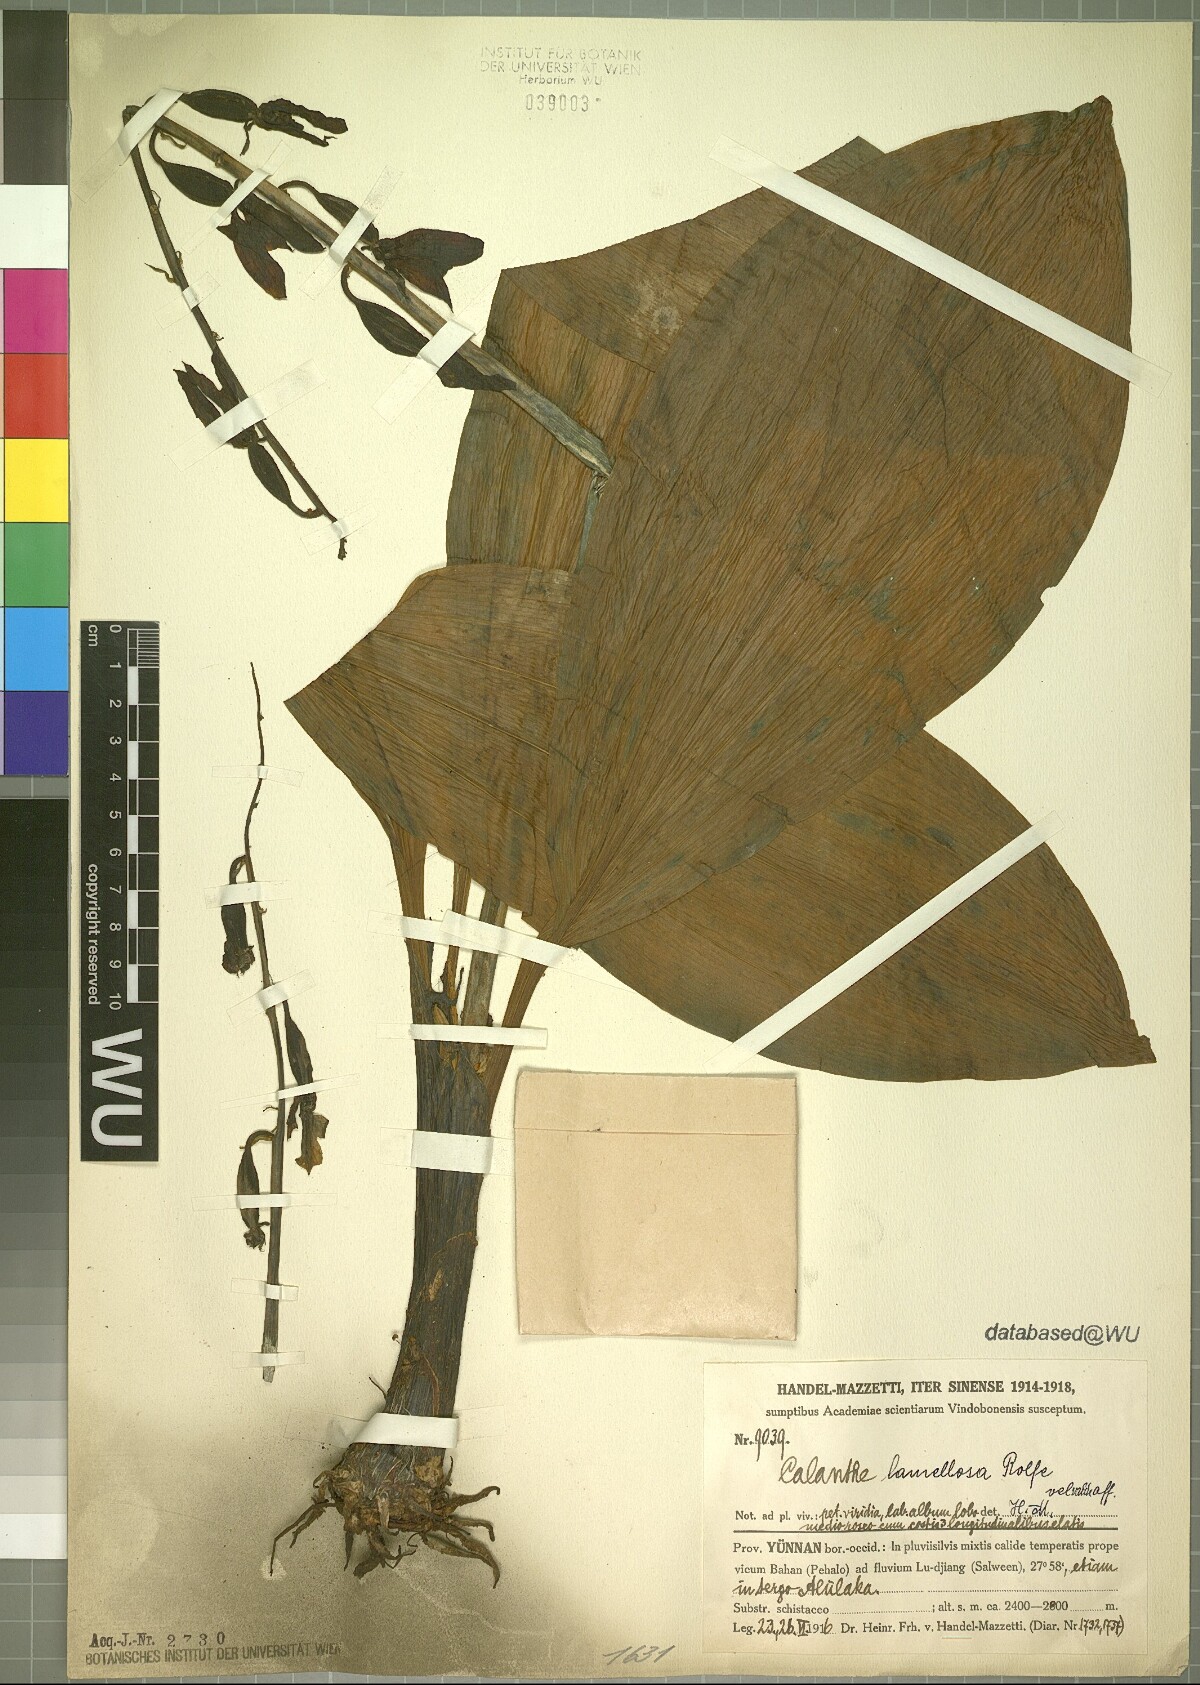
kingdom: Plantae
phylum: Tracheophyta
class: Liliopsida
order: Asparagales
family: Orchidaceae
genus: Calanthe
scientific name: Calanthe lamellosa
